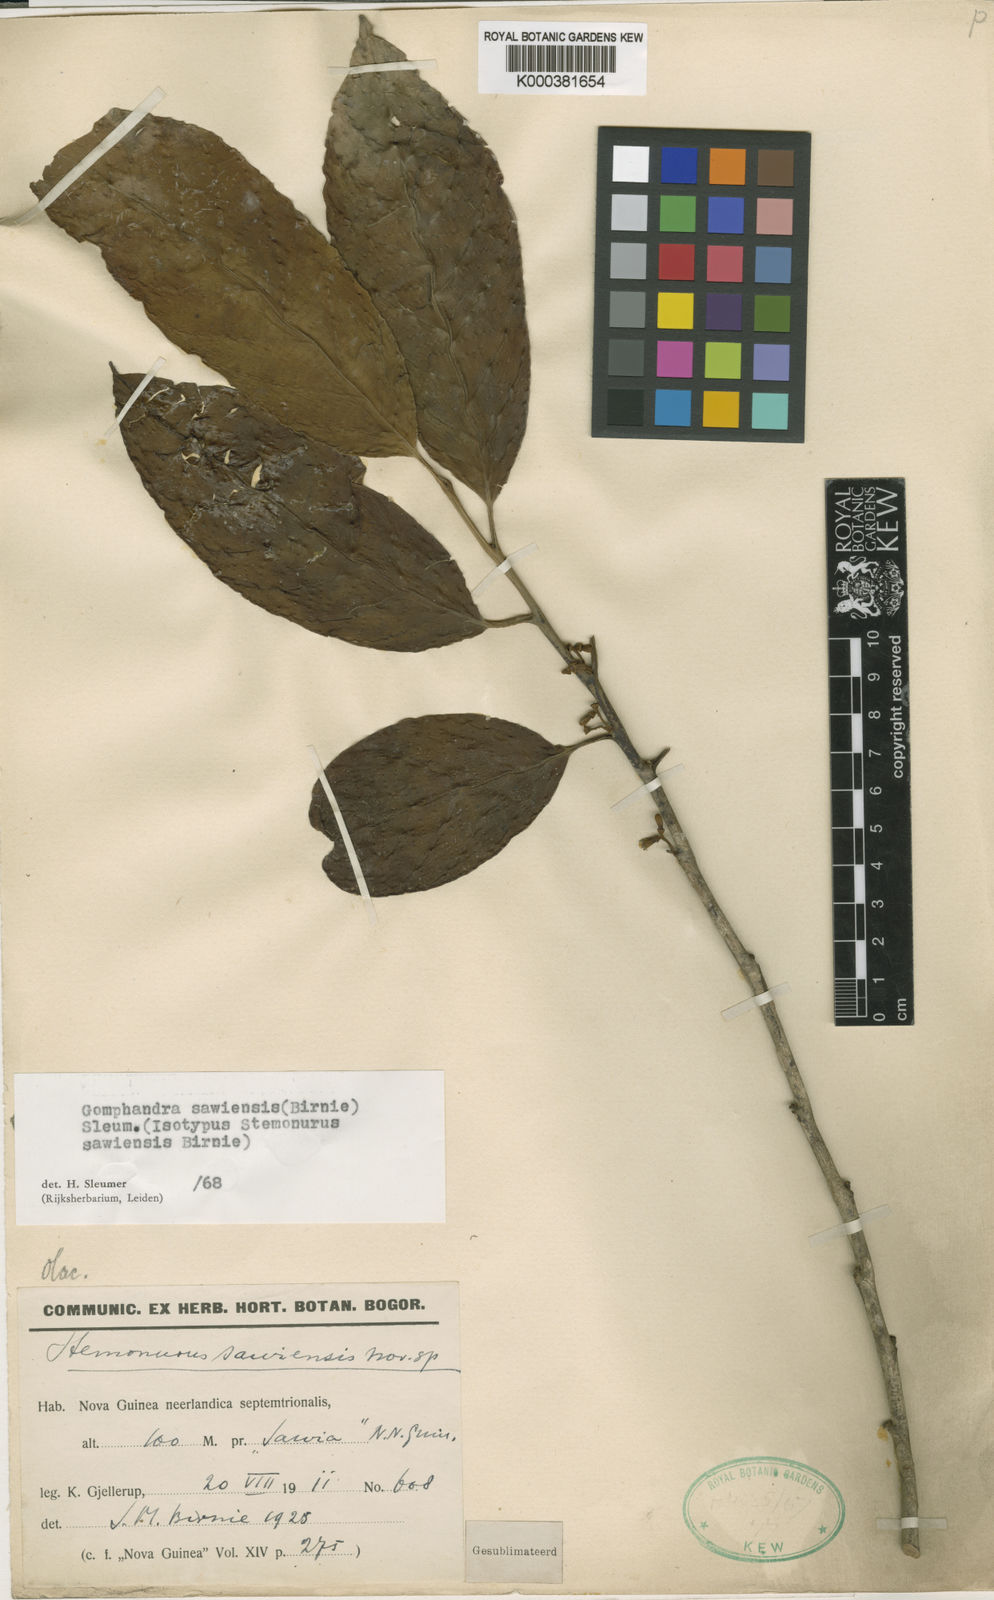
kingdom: Plantae
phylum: Tracheophyta
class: Magnoliopsida
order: Cardiopteridales
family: Stemonuraceae
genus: Gomphandra
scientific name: Gomphandra papuana
